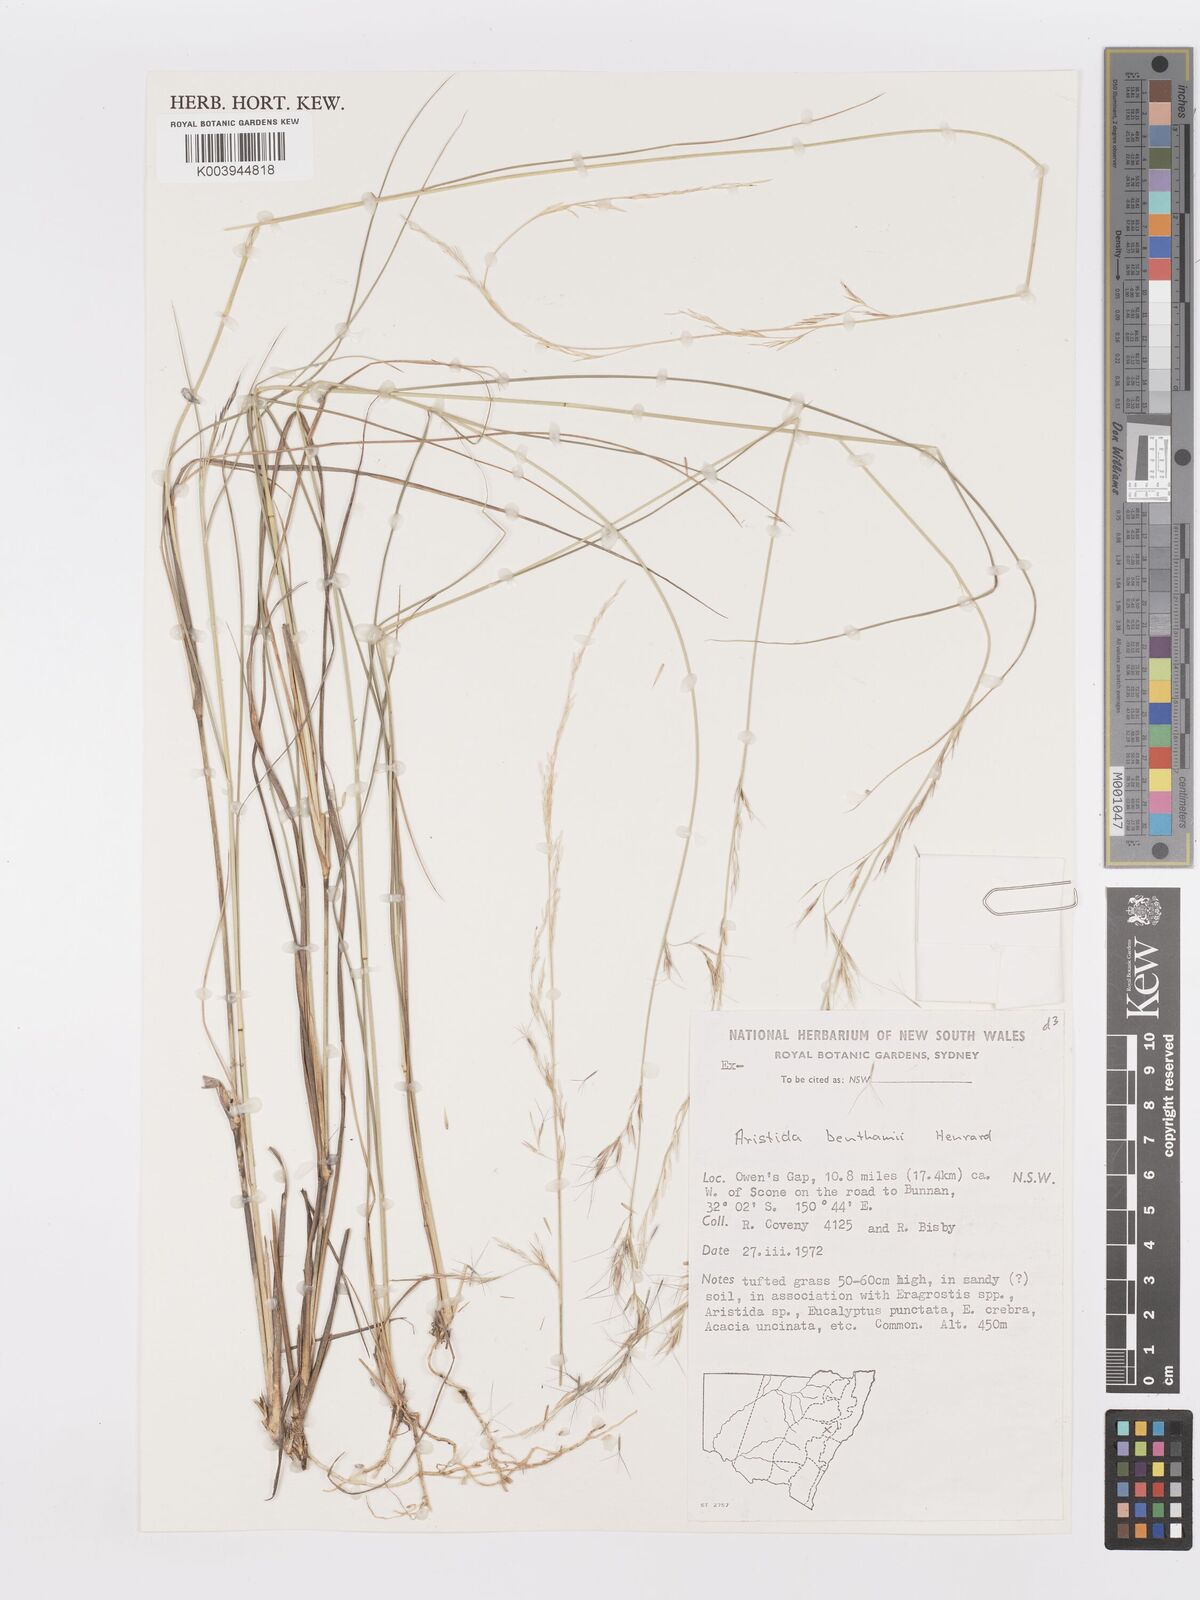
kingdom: Plantae
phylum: Tracheophyta
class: Liliopsida
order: Poales
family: Poaceae
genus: Aristida
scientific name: Aristida benthamii
